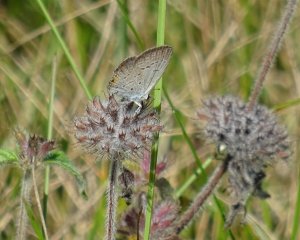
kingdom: Animalia
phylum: Arthropoda
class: Insecta
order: Lepidoptera
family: Lycaenidae
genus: Elkalyce
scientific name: Elkalyce comyntas
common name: Eastern Tailed-Blue
